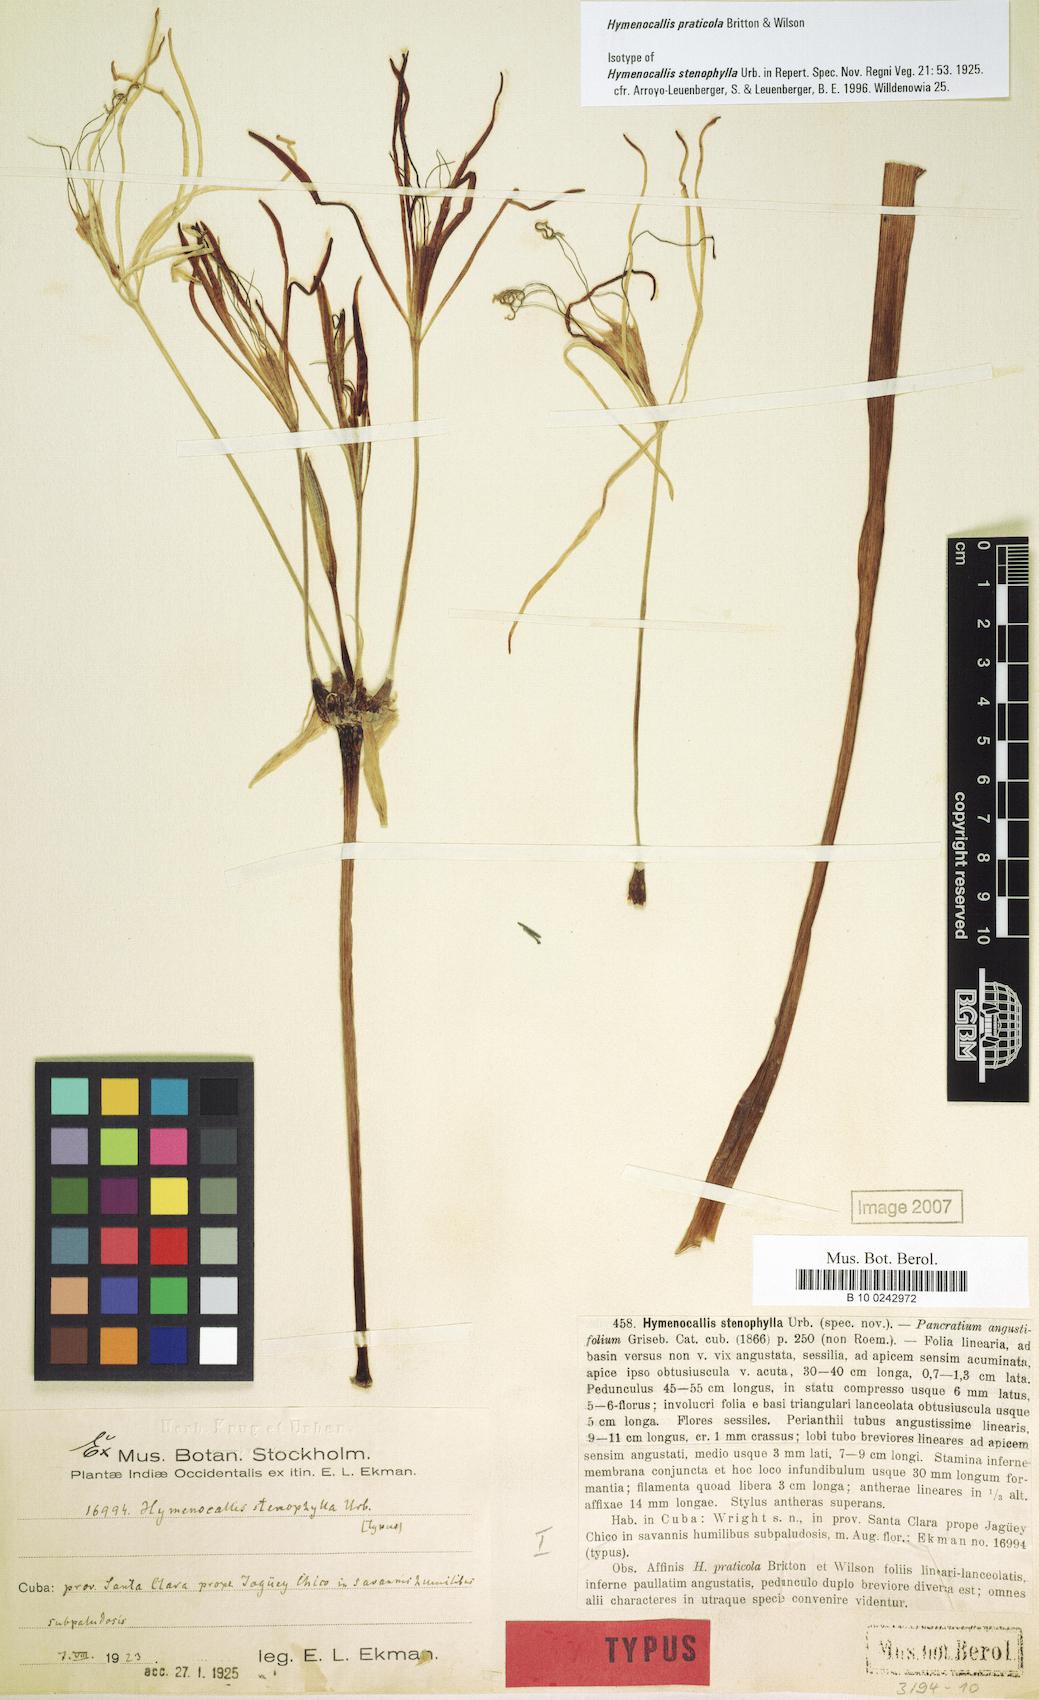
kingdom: Plantae
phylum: Tracheophyta
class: Liliopsida
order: Asparagales
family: Amaryllidaceae
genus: Hymenocallis
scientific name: Hymenocallis praticola
